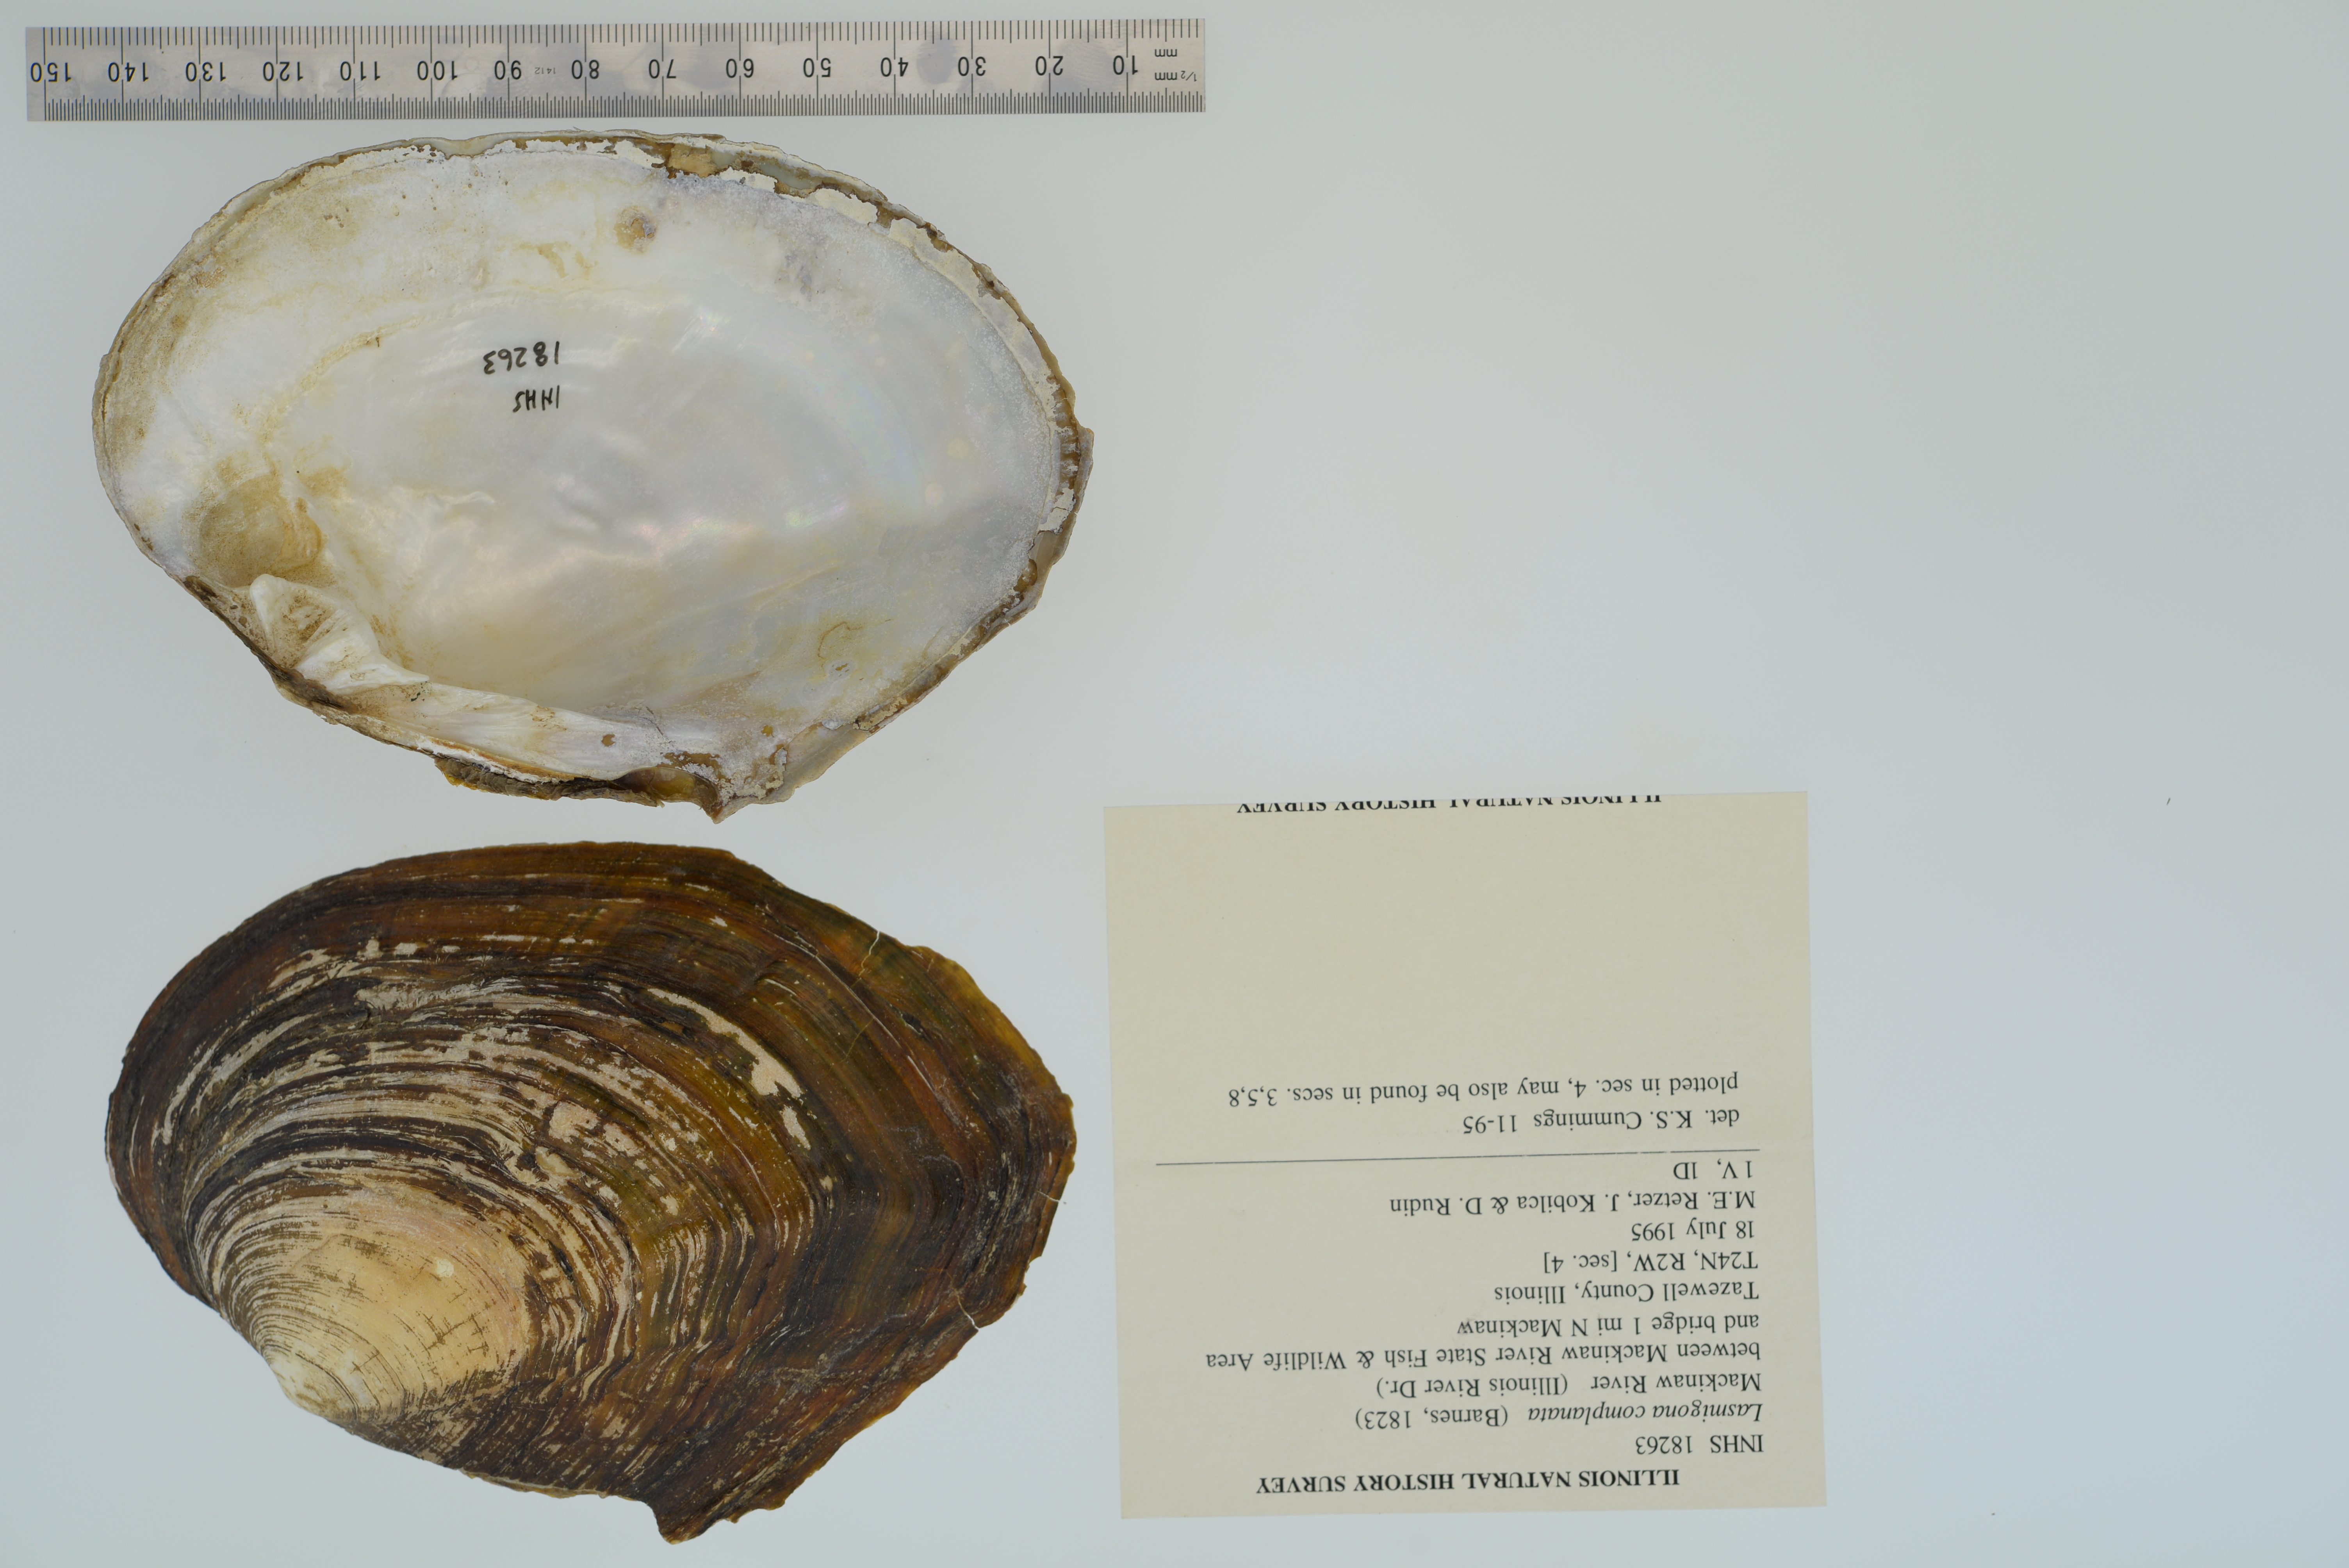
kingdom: Animalia
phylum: Mollusca
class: Bivalvia
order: Unionida
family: Unionidae
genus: Lasmigona
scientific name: Lasmigona complanata
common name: White heelsplitter
